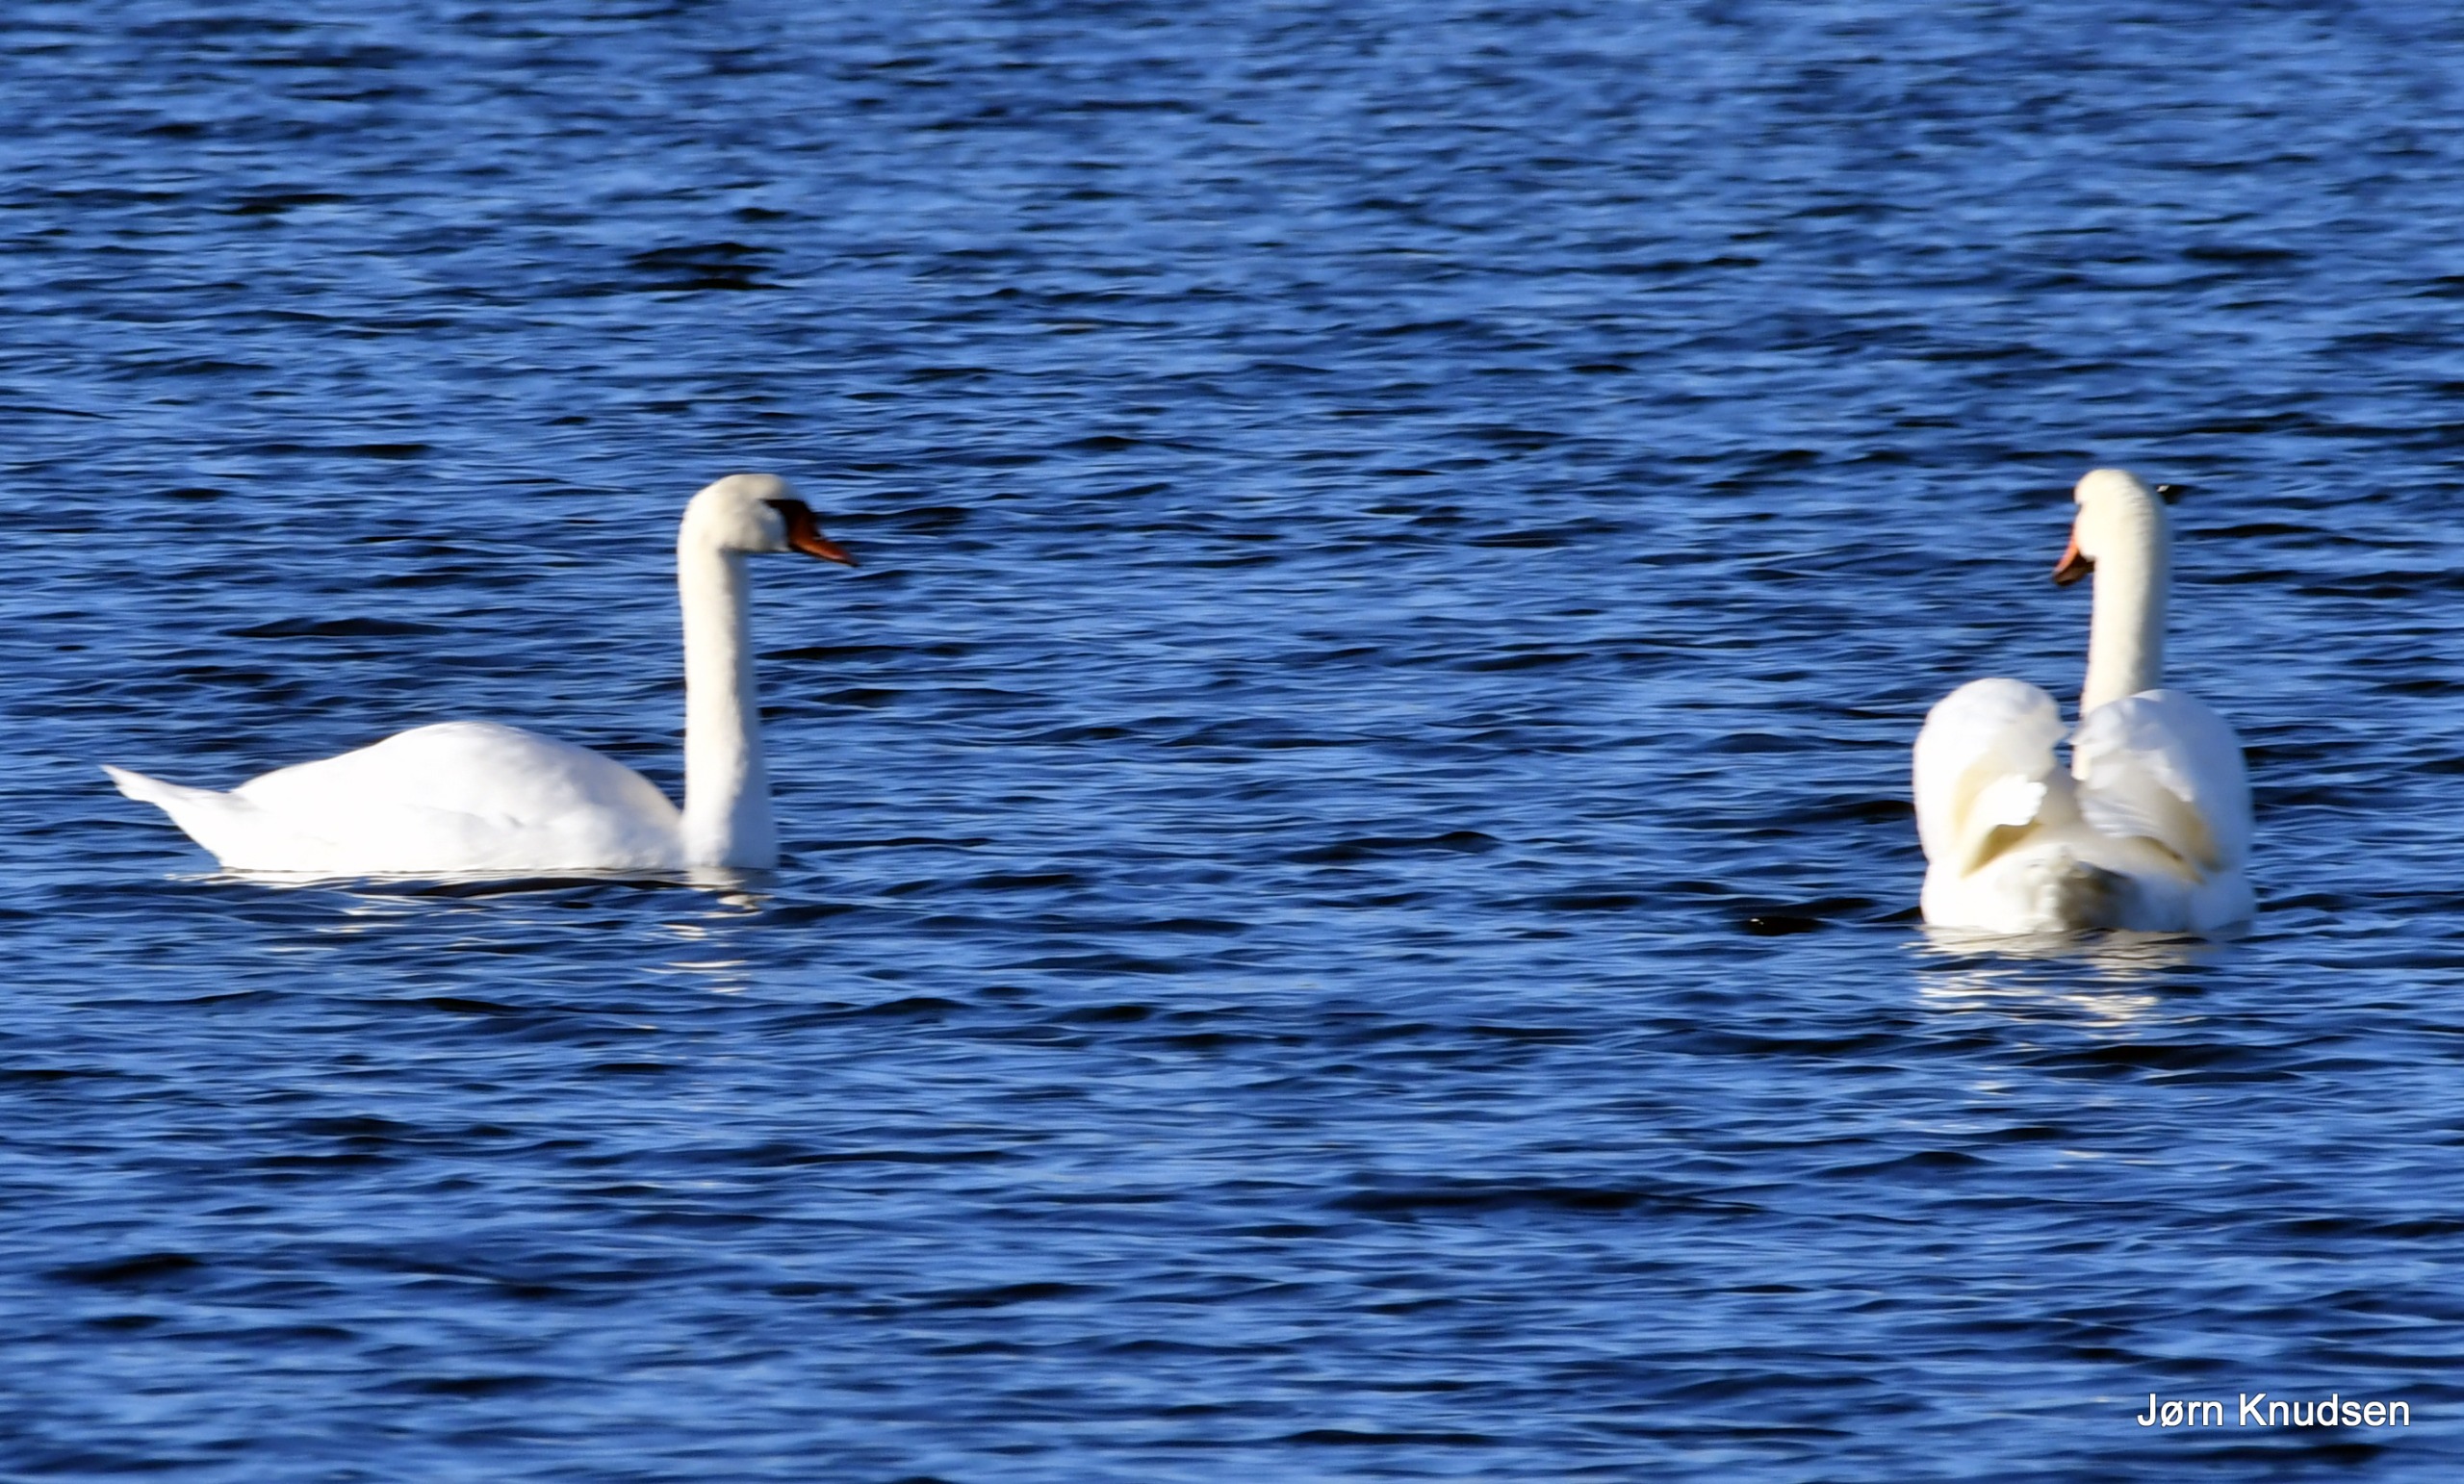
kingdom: Animalia
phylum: Chordata
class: Aves
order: Anseriformes
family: Anatidae
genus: Cygnus
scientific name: Cygnus olor
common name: Knopsvane
